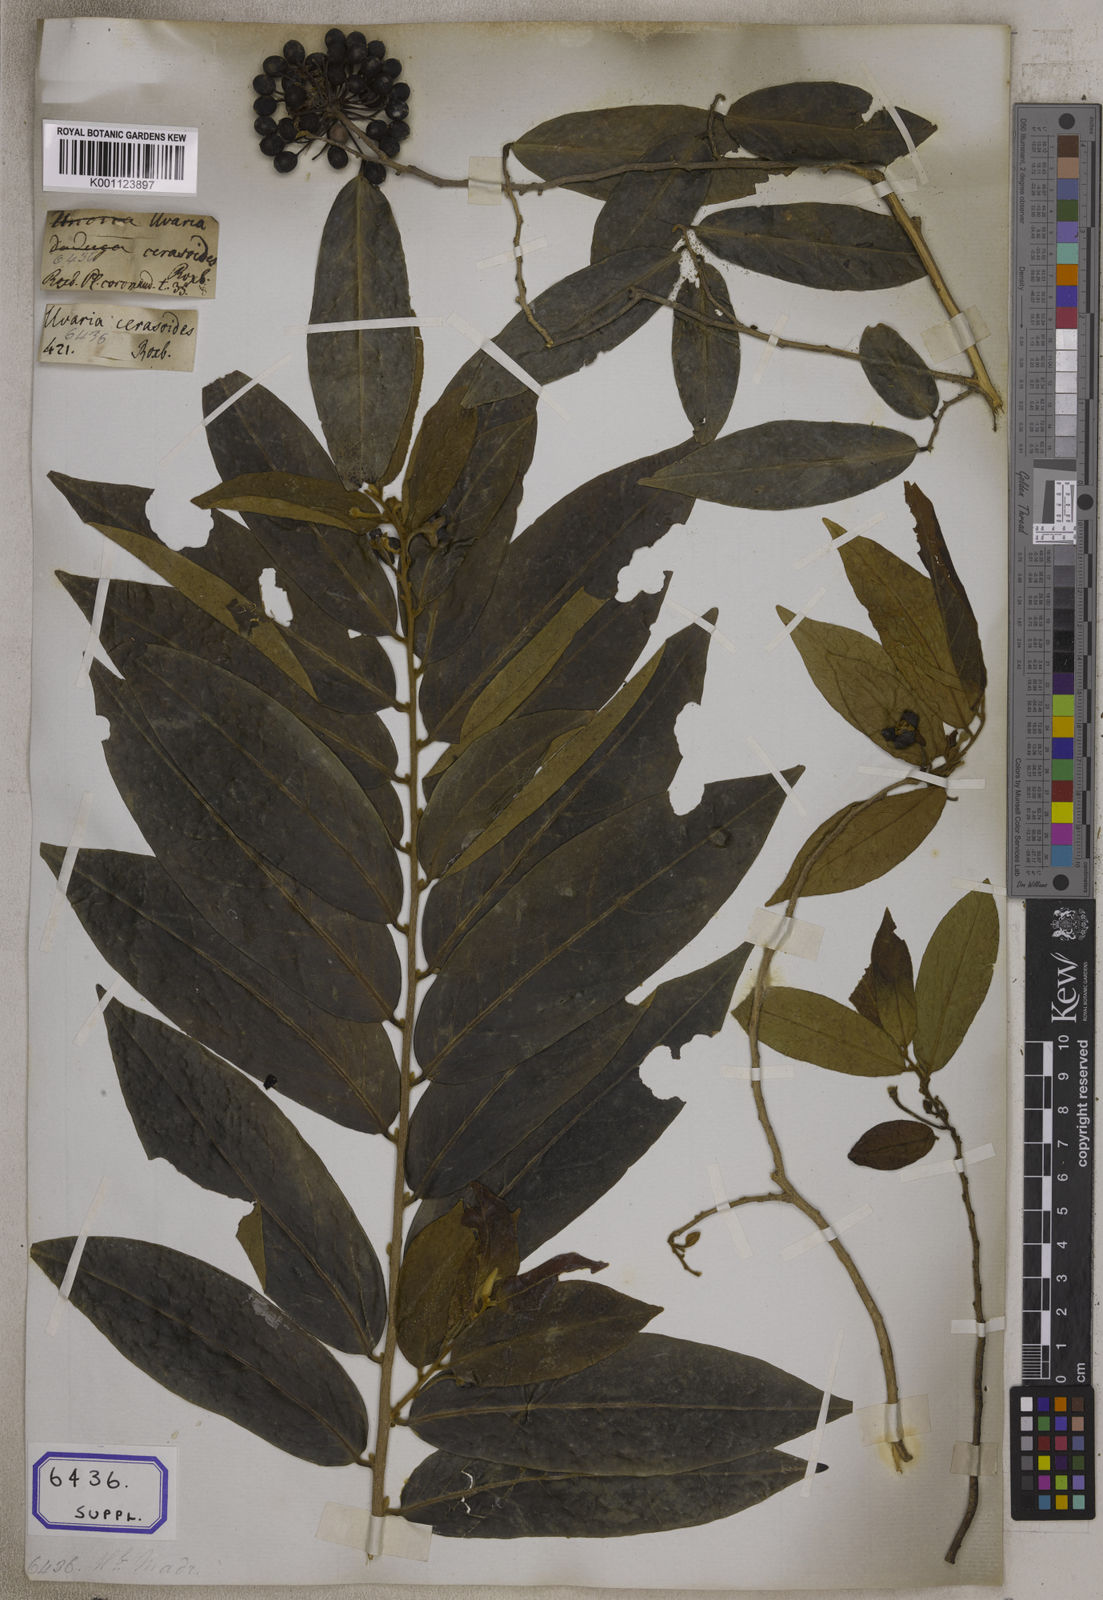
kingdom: Plantae
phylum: Tracheophyta
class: Magnoliopsida
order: Magnoliales
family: Annonaceae
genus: Hubera
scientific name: Hubera cerasoides
